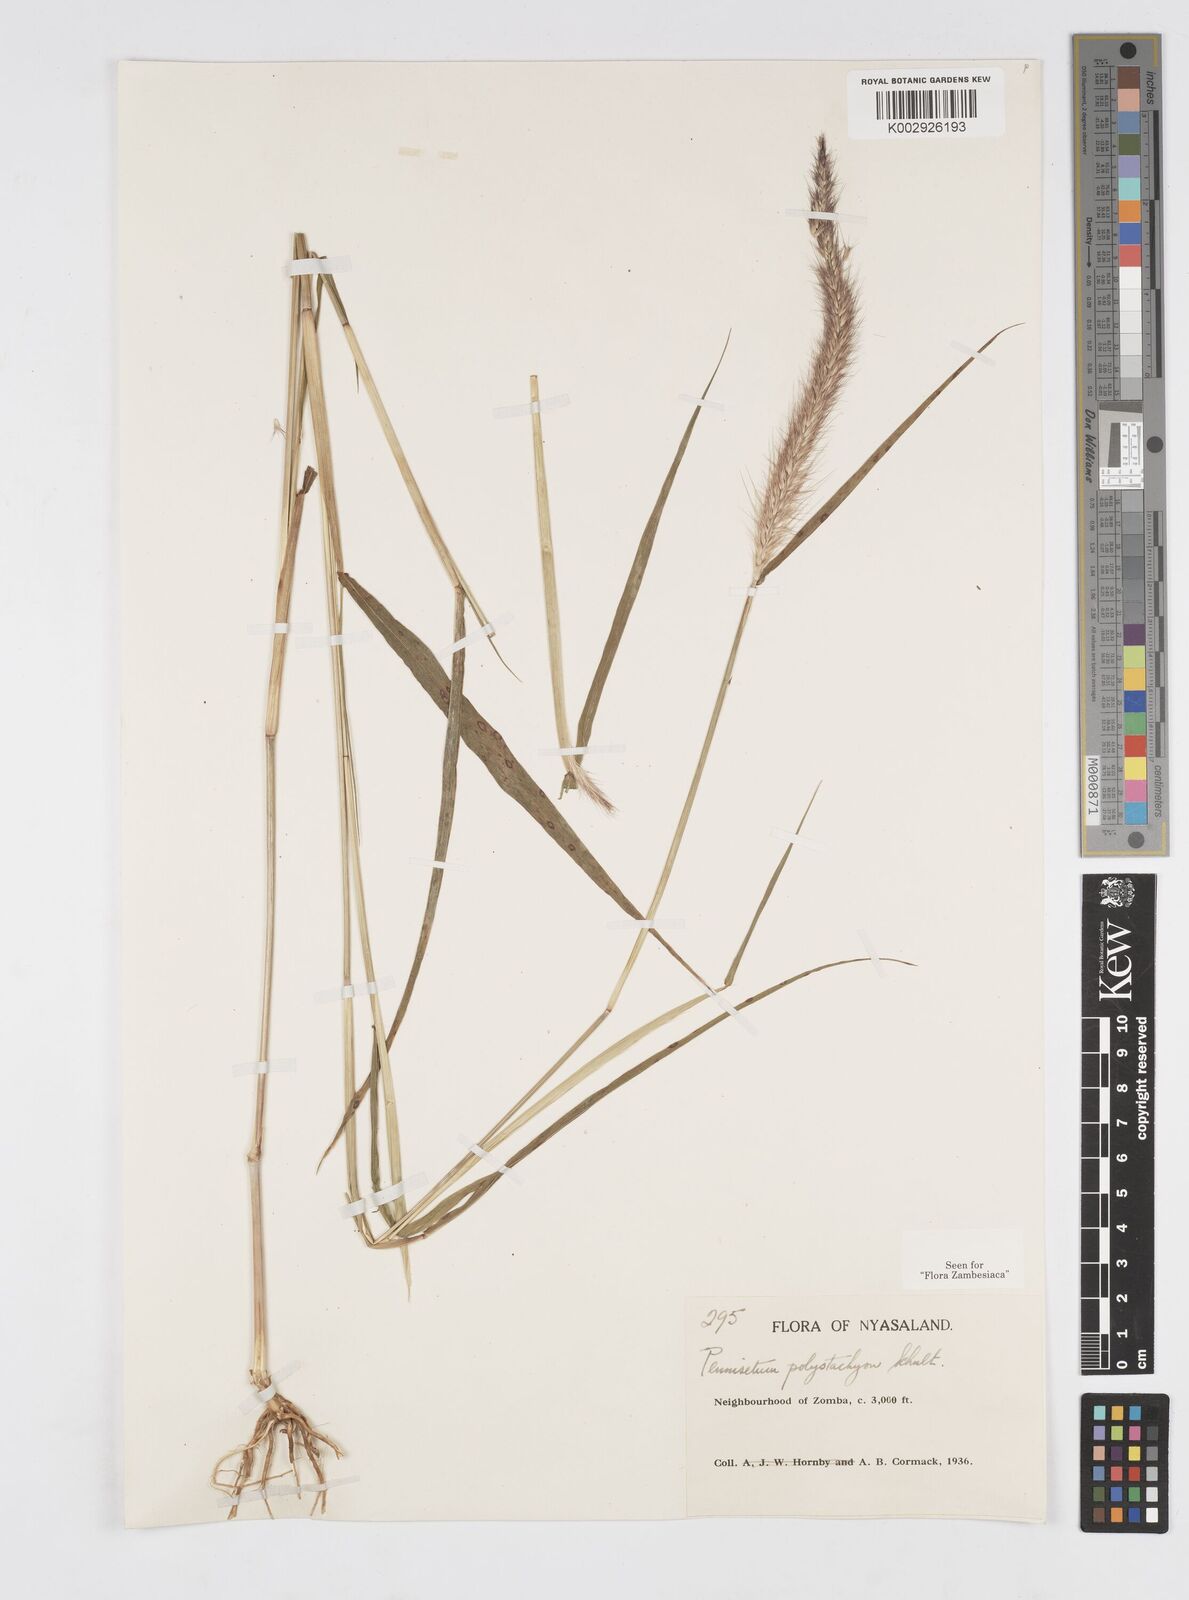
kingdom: Plantae
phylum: Tracheophyta
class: Liliopsida
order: Poales
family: Poaceae
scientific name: Poaceae
